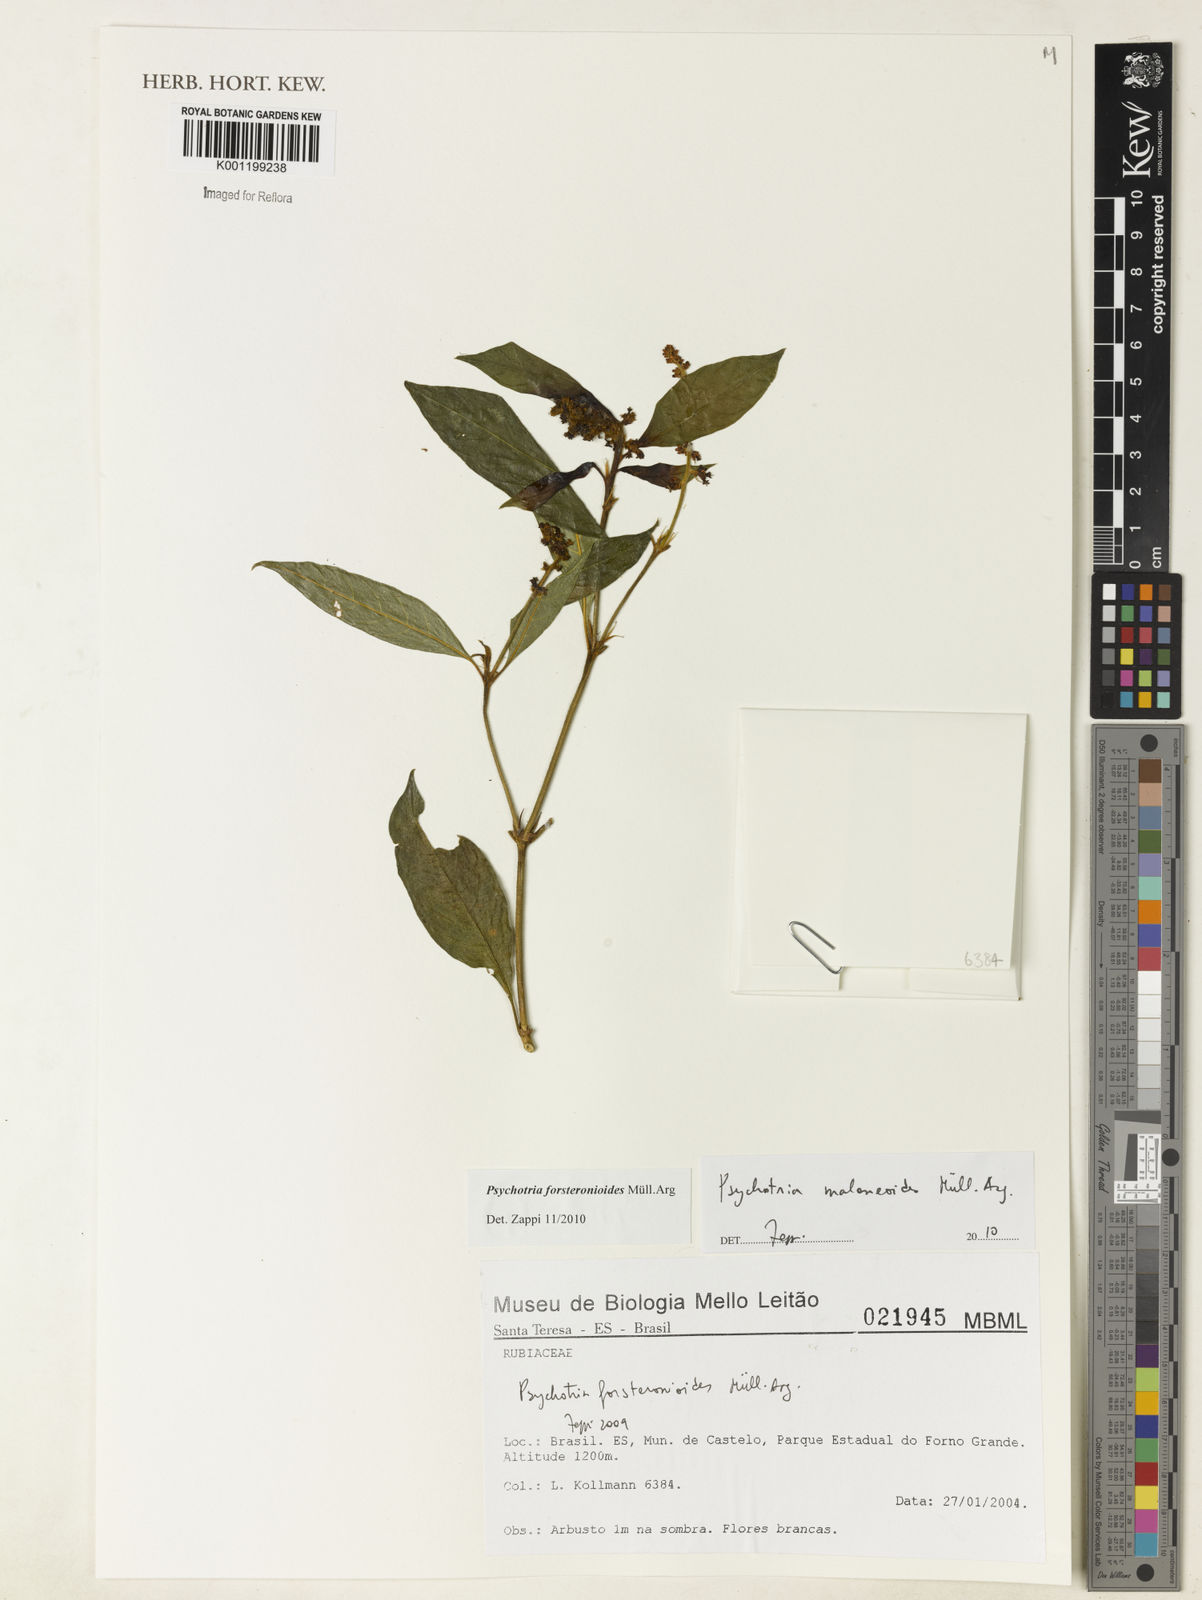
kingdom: Plantae
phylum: Tracheophyta
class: Magnoliopsida
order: Gentianales
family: Rubiaceae
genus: Psychotria
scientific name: Psychotria
